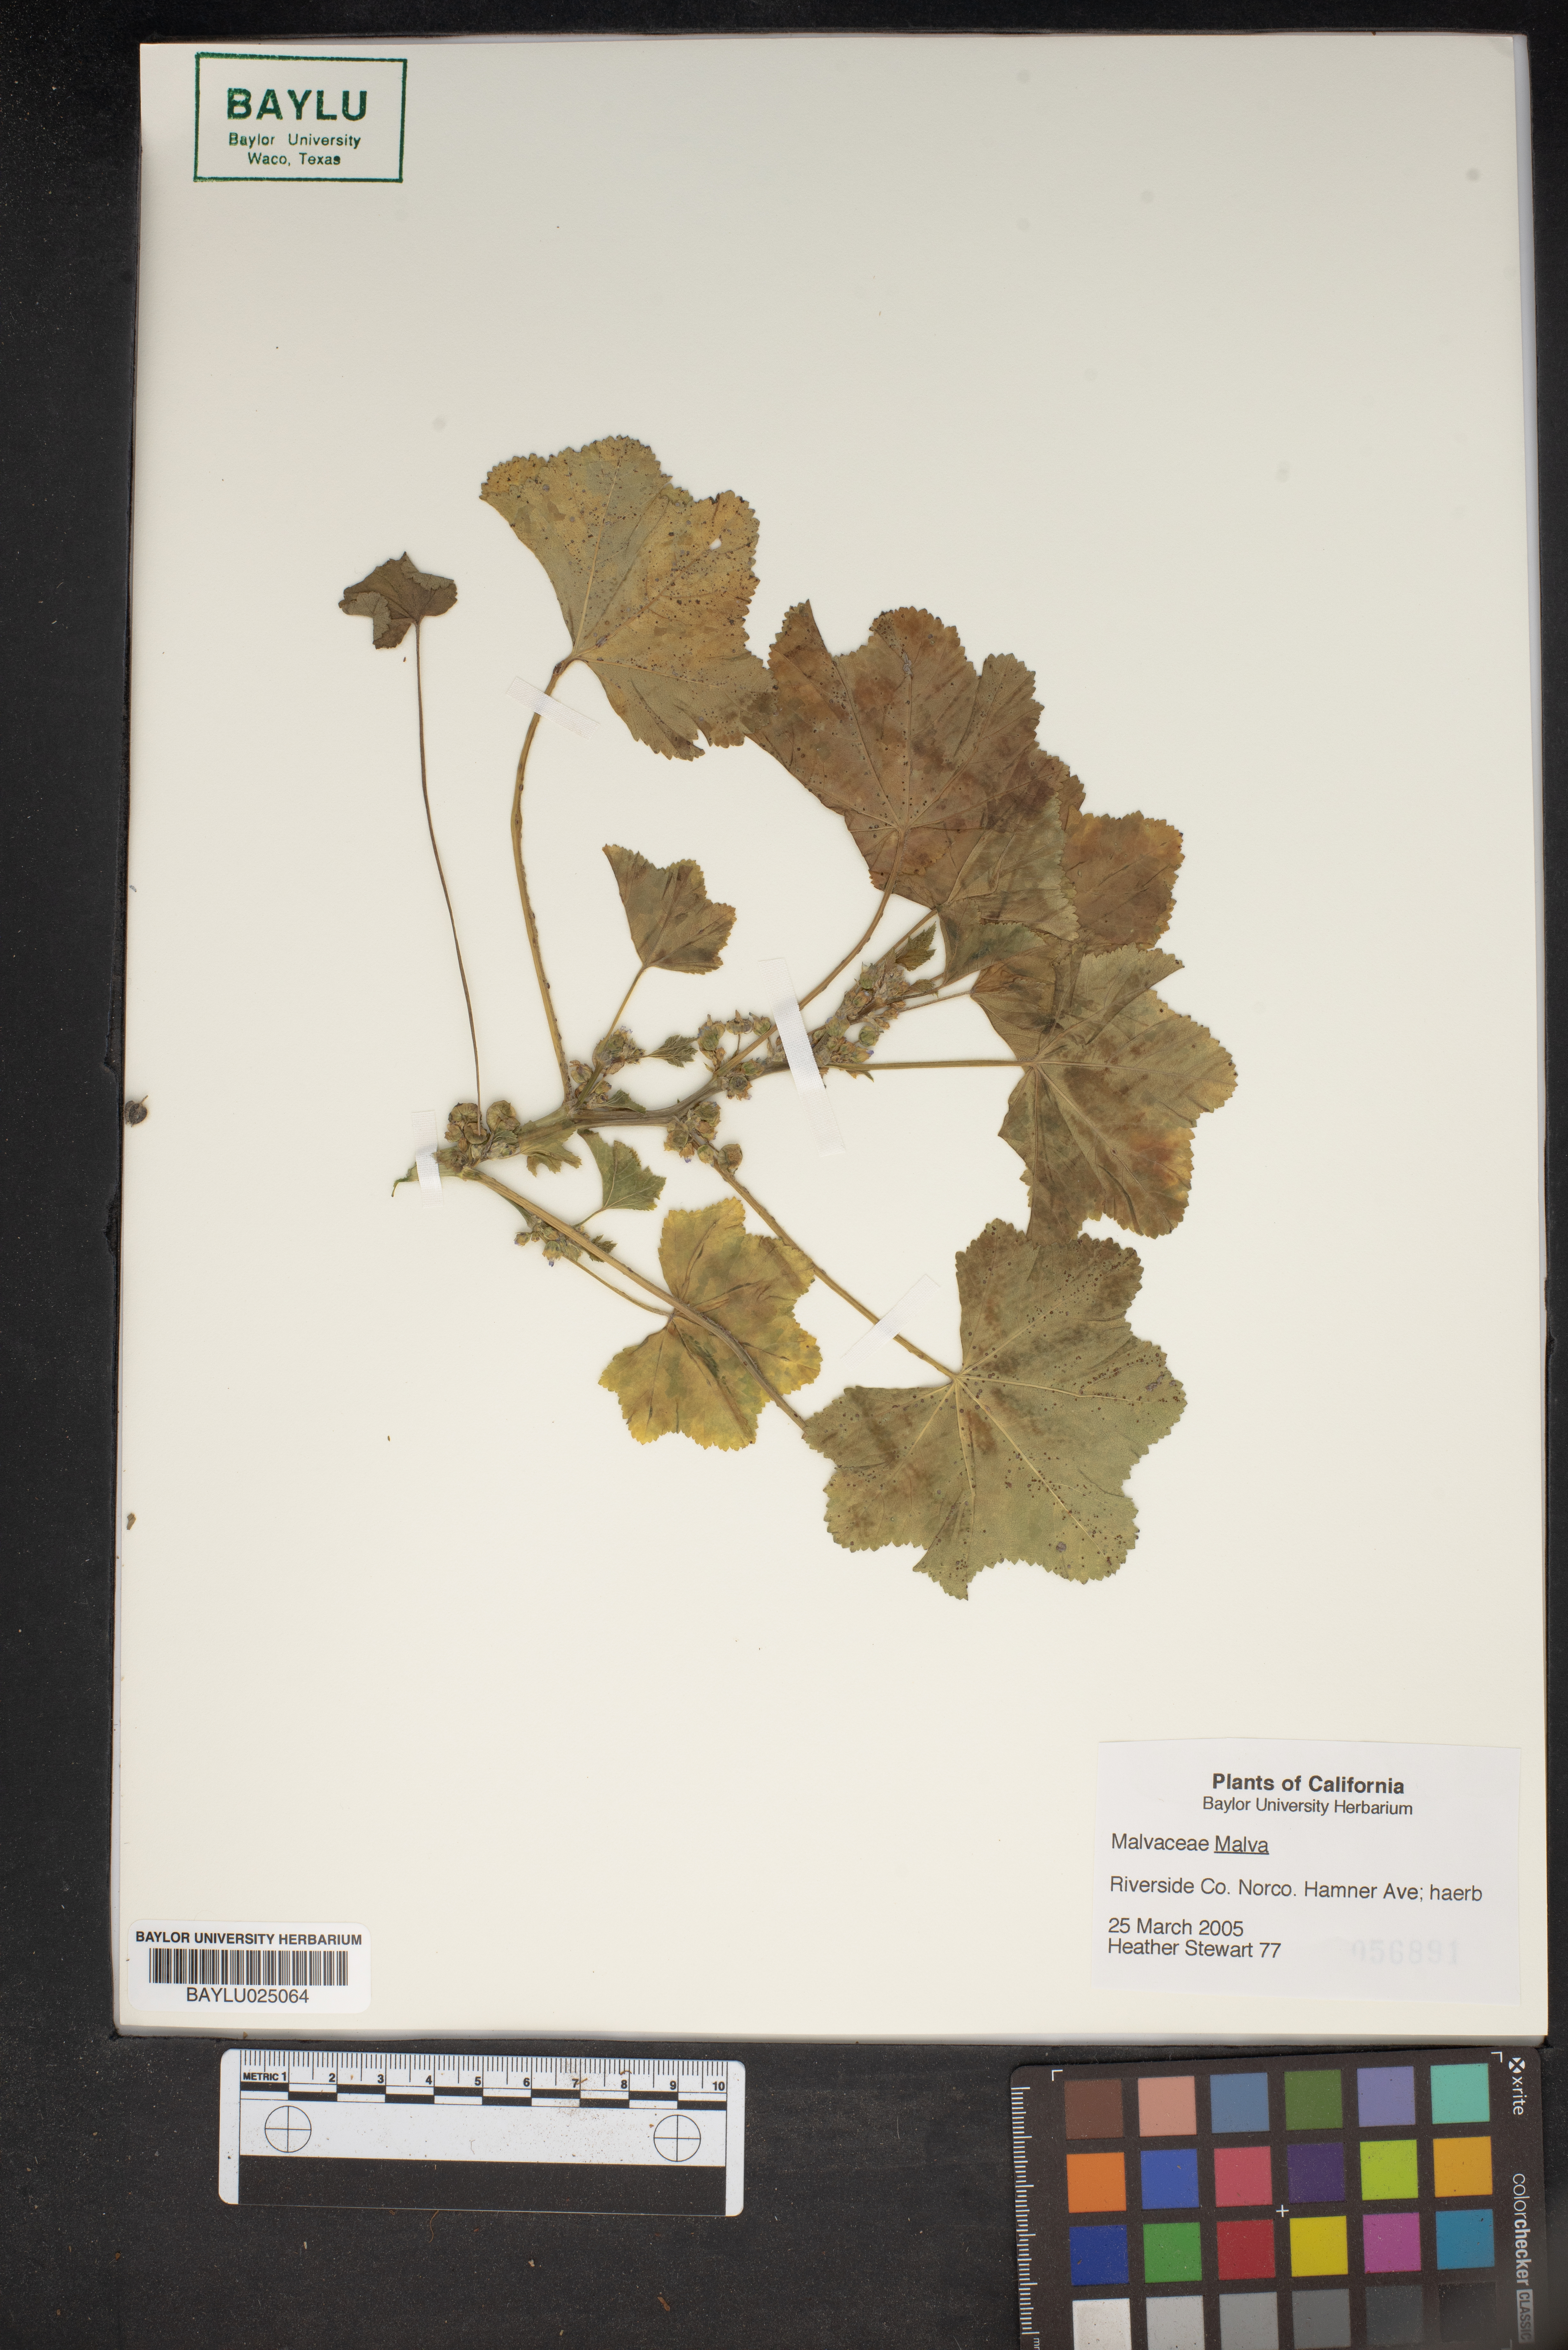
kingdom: Plantae
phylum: Tracheophyta
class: Magnoliopsida
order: Malvales
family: Malvaceae
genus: Malva
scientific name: Malva
